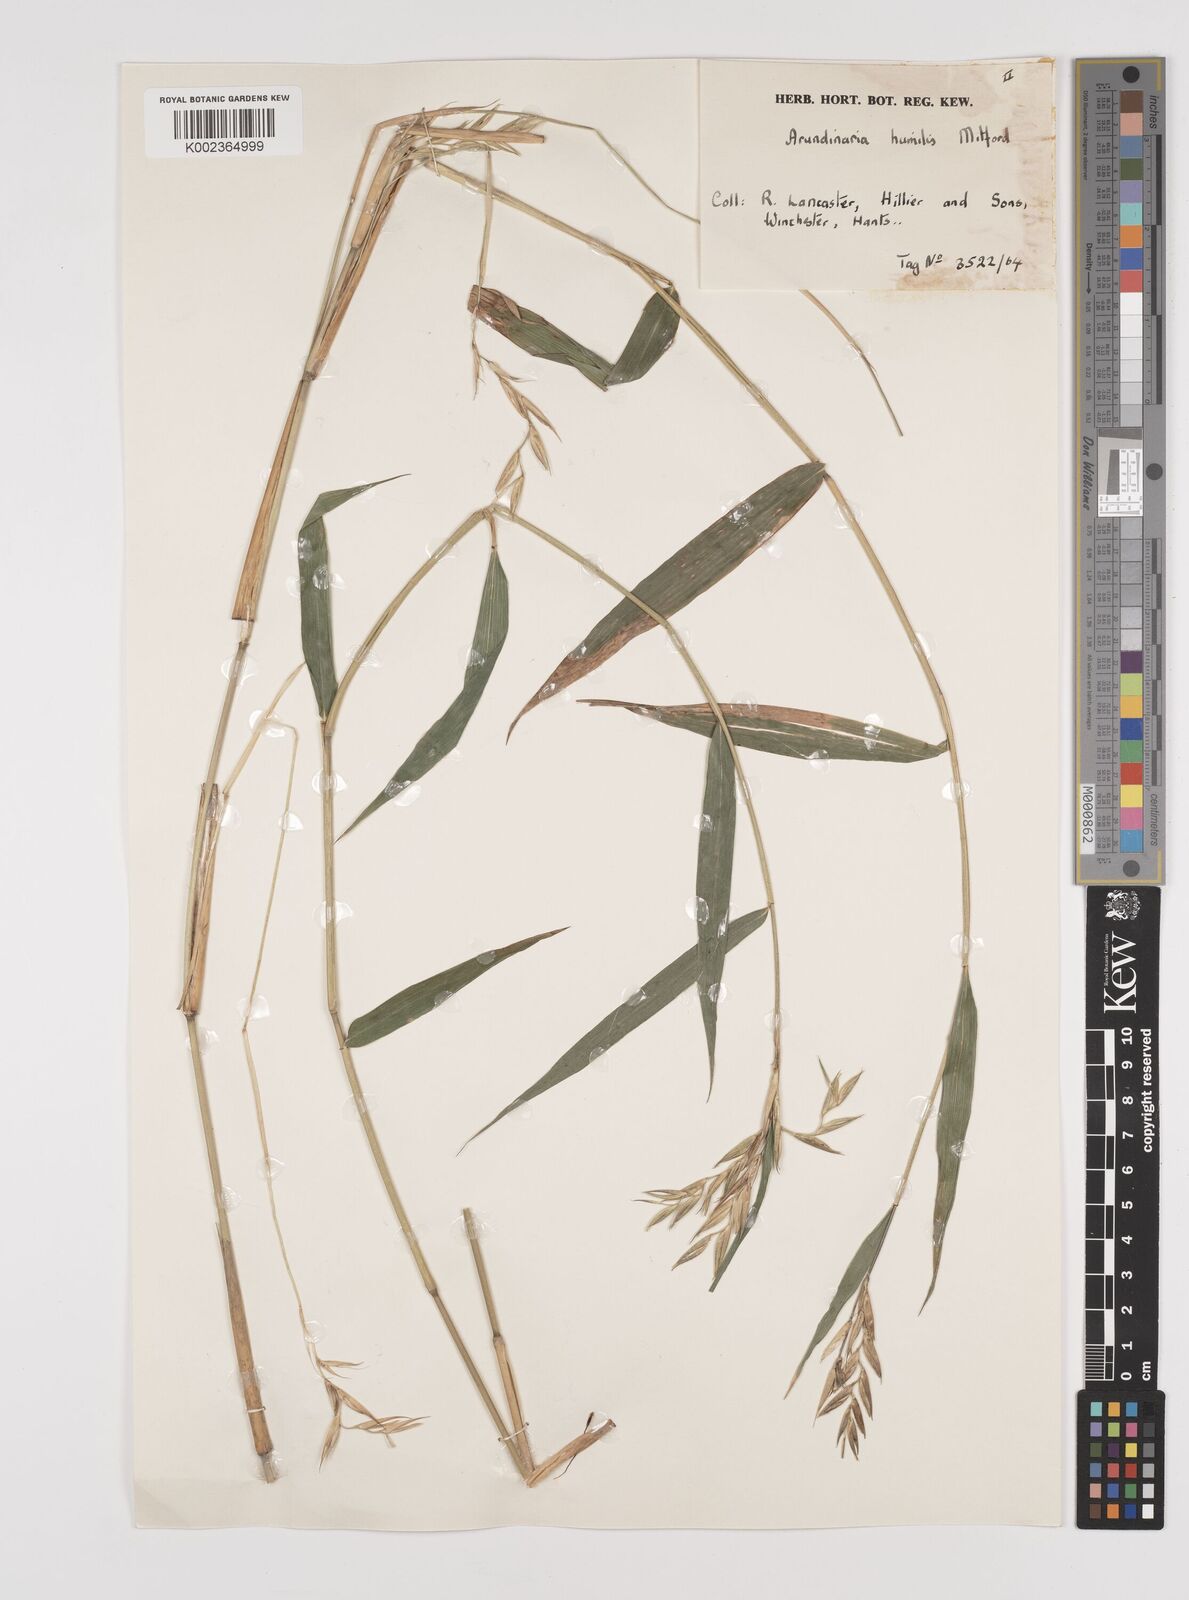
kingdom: Plantae
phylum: Tracheophyta
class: Liliopsida
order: Poales
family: Poaceae
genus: Pseudosasa
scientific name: Pseudosasa humilis
